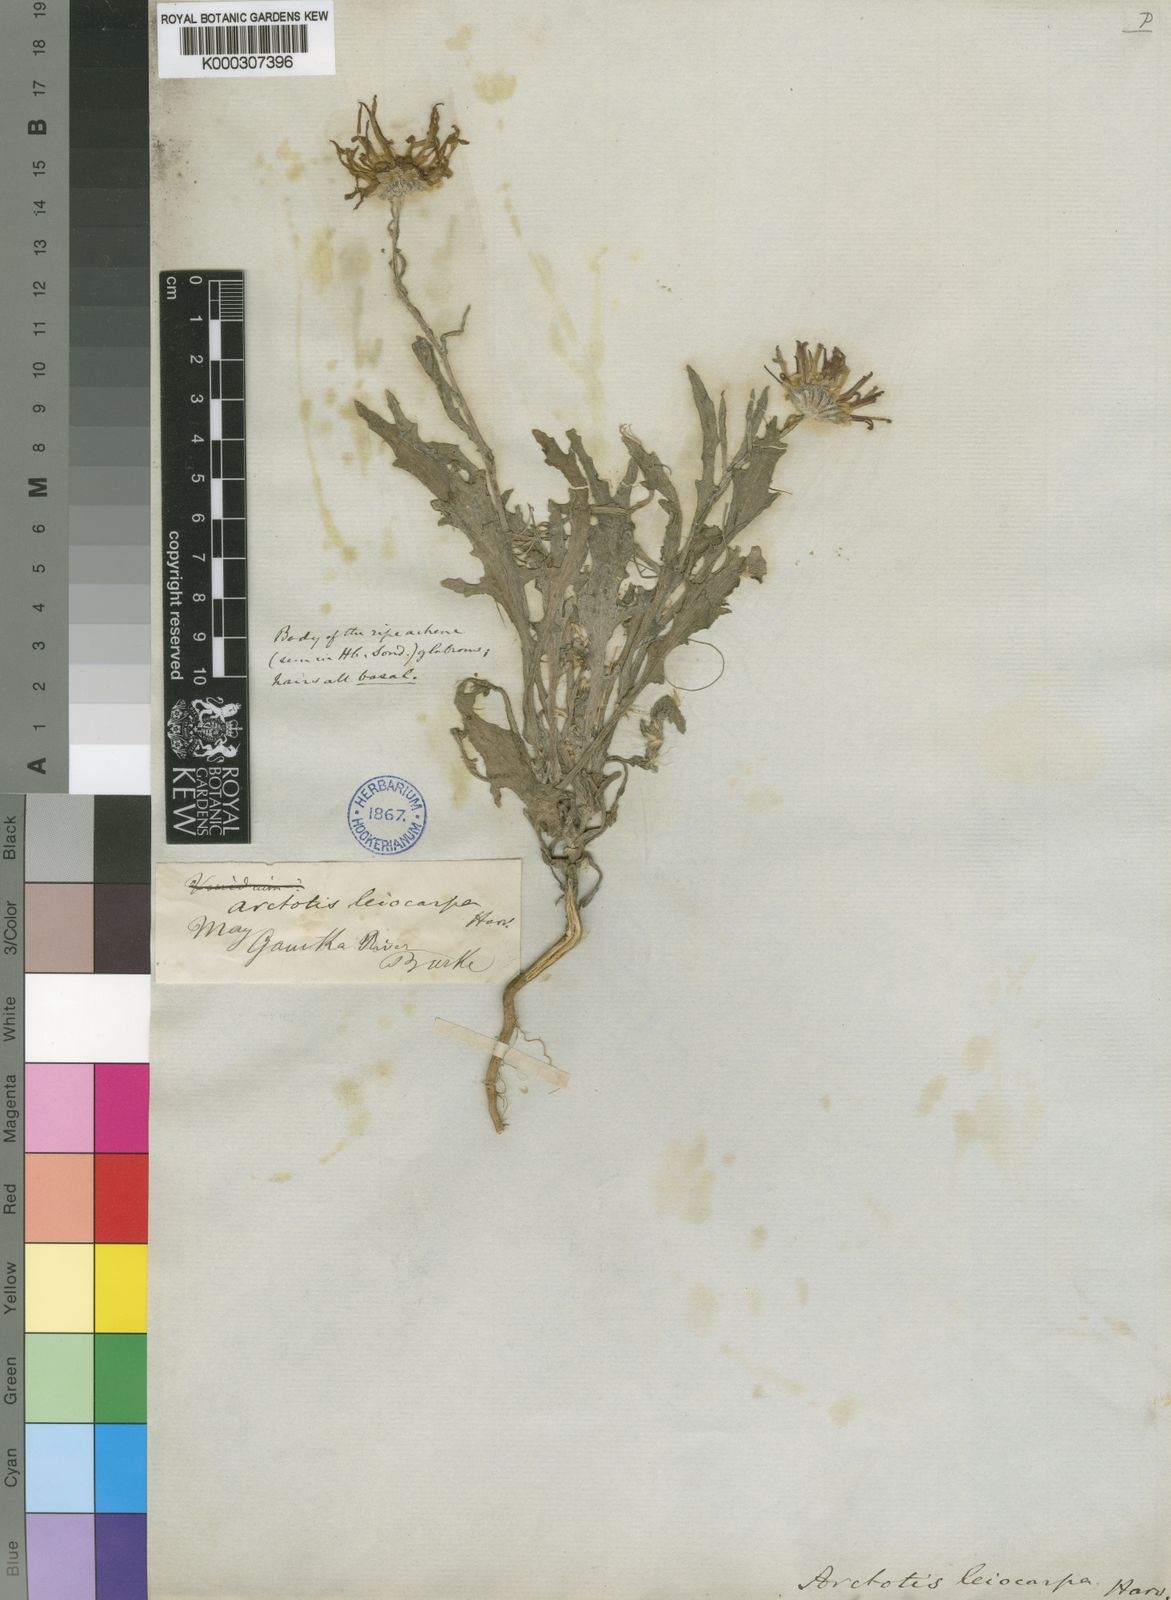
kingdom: Plantae
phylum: Tracheophyta
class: Magnoliopsida
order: Asterales
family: Asteraceae
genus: Arctotis
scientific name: Arctotis leiocarpa
